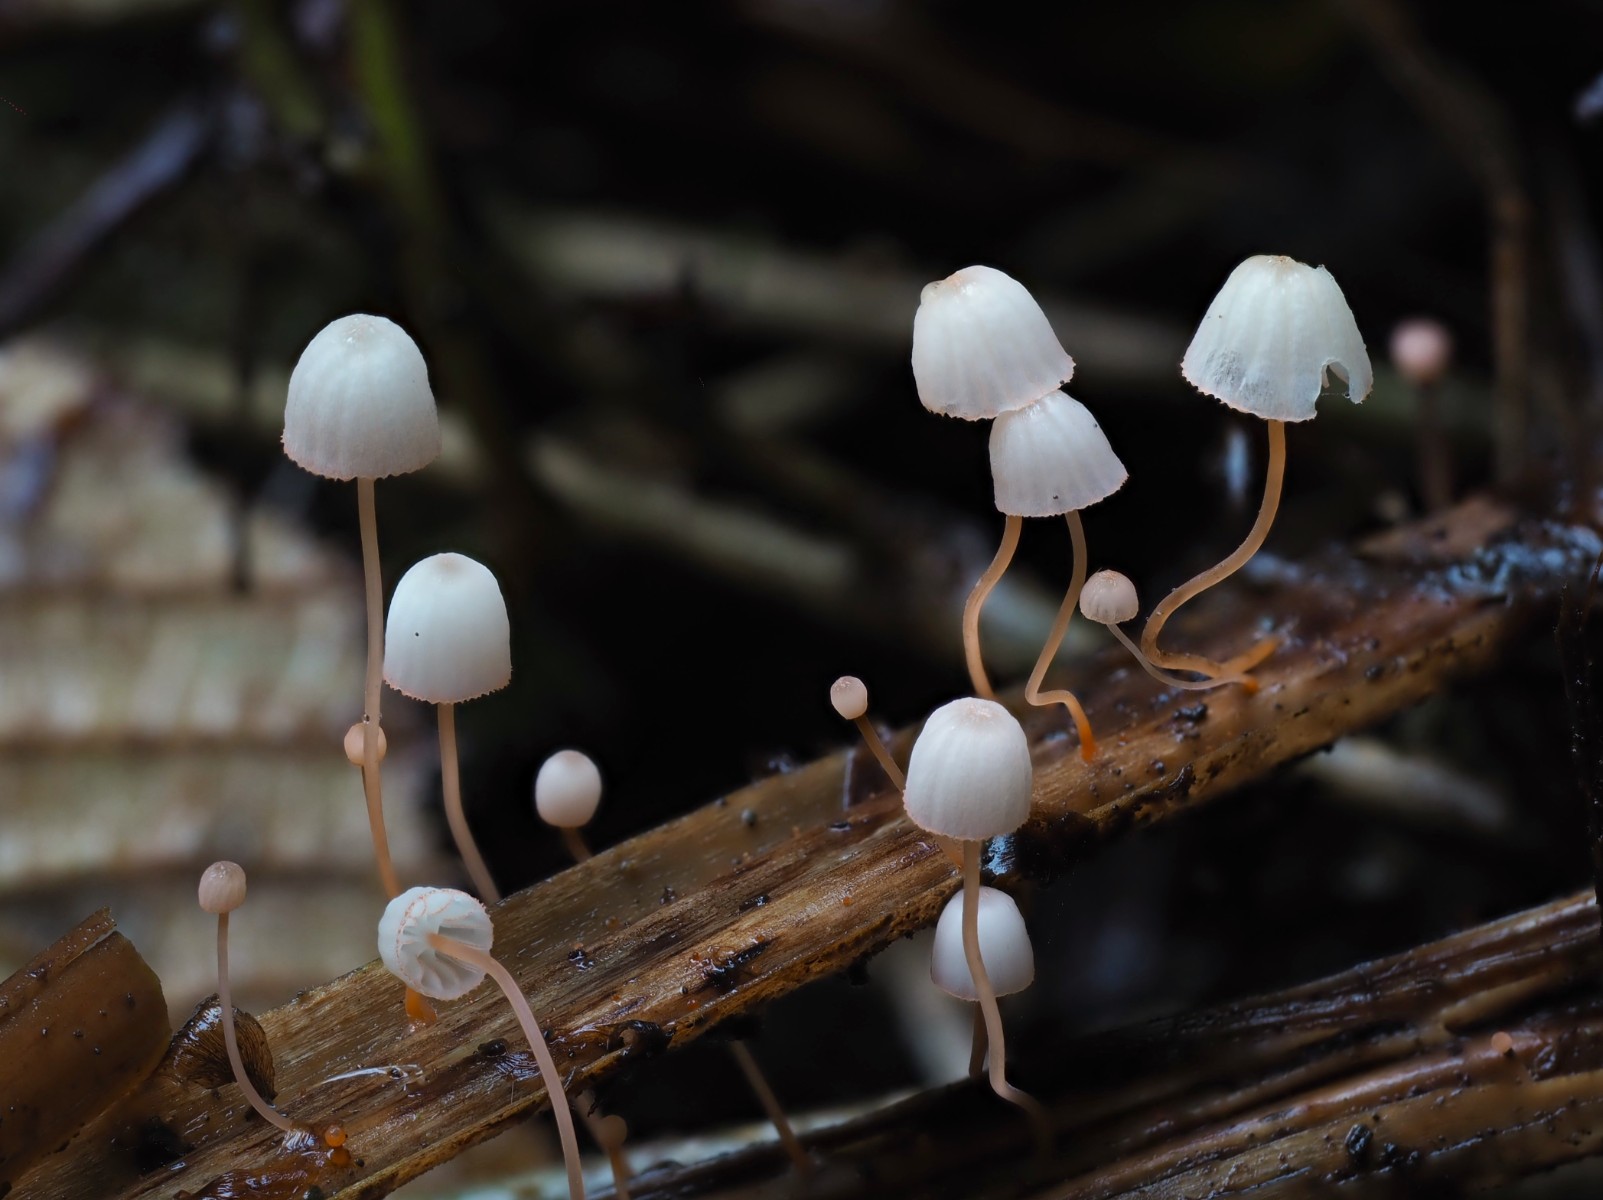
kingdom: Fungi
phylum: Basidiomycota
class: Agaricomycetes
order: Agaricales
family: Mycenaceae
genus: Mycena
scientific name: Mycena pterigena
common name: bregne-huesvamp
